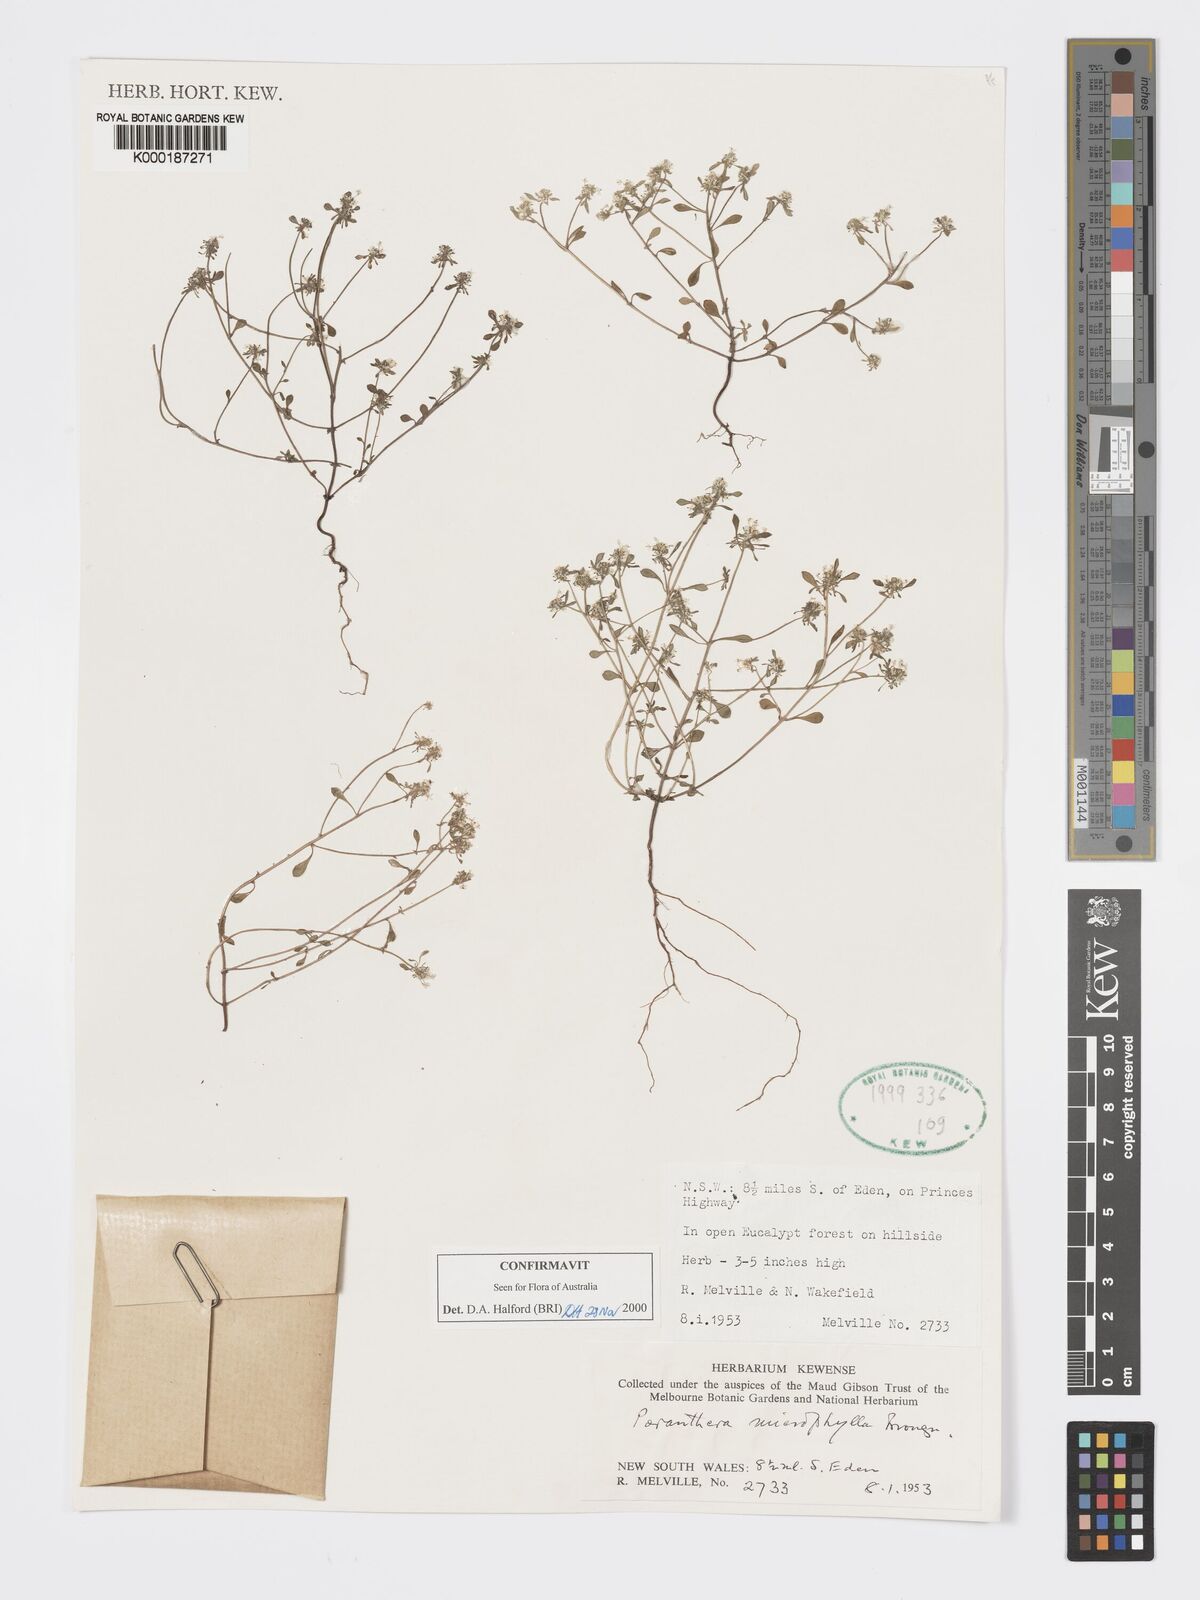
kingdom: Plantae
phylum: Tracheophyta
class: Magnoliopsida
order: Malpighiales
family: Phyllanthaceae
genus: Poranthera
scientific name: Poranthera microphylla
